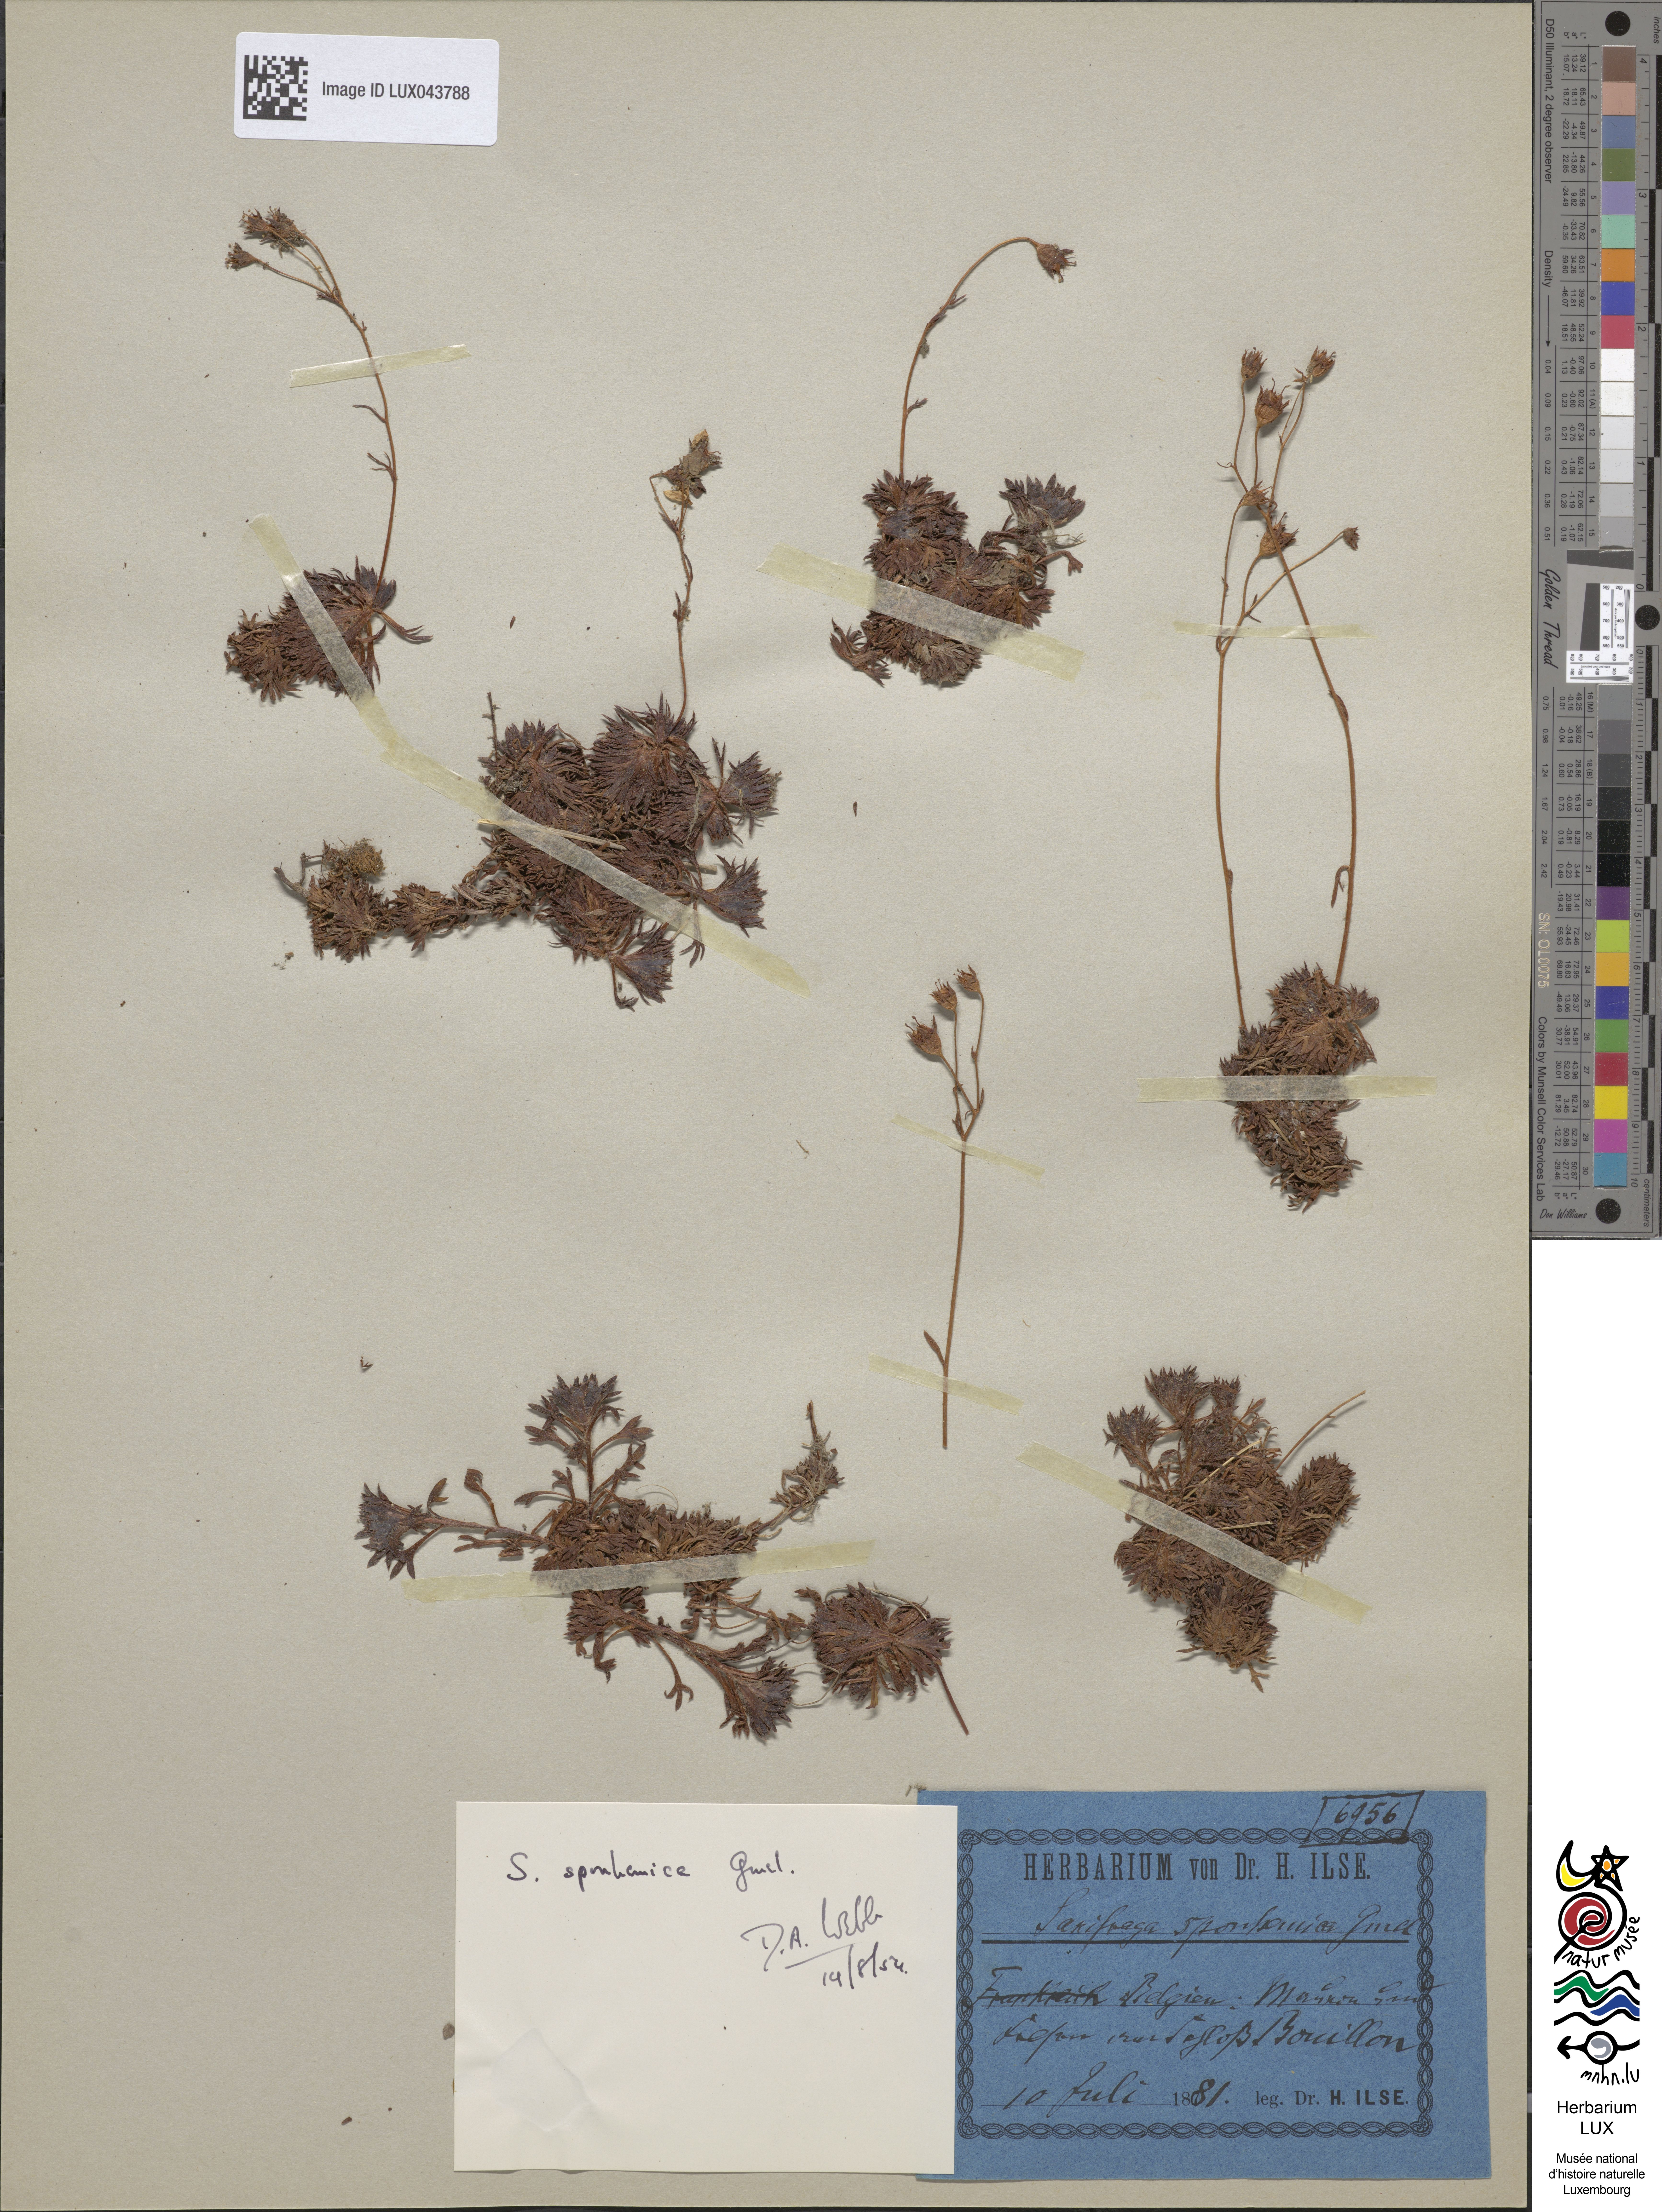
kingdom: Plantae
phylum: Tracheophyta
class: Magnoliopsida
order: Saxifragales
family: Saxifragaceae
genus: Saxifraga
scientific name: Saxifraga rosacea
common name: Irish saxifrage
